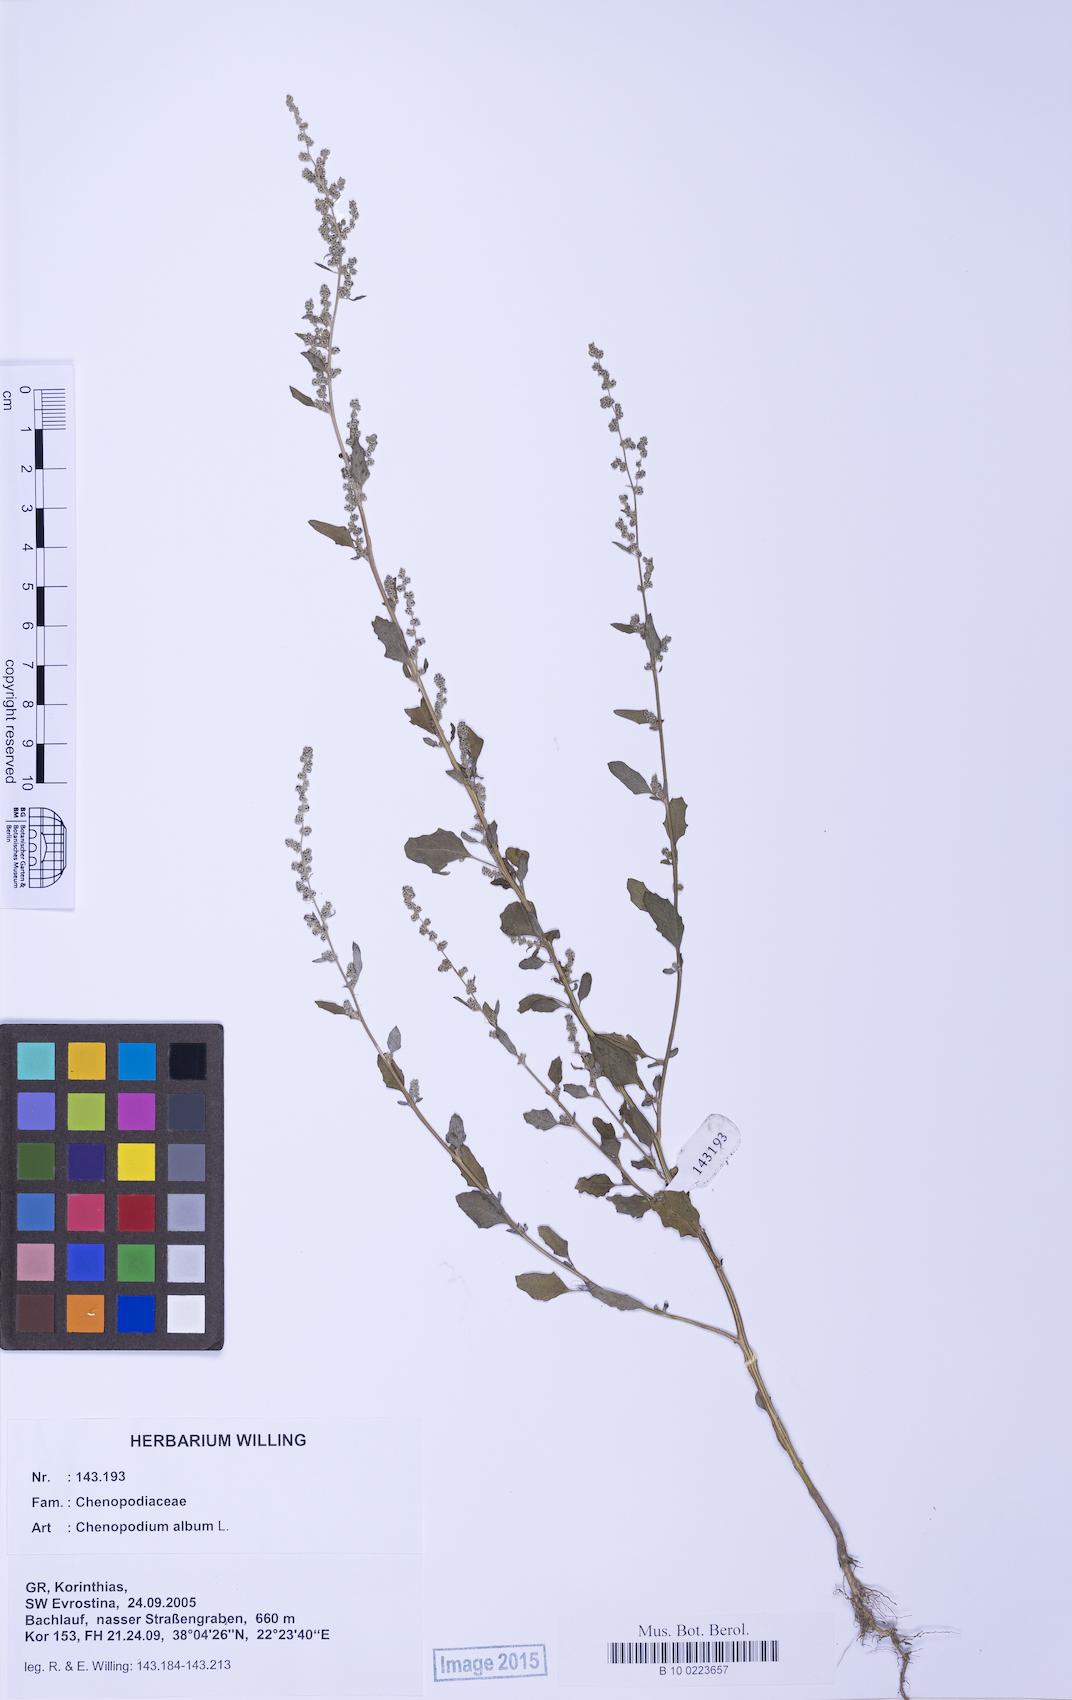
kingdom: Plantae
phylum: Tracheophyta
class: Magnoliopsida
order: Caryophyllales
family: Amaranthaceae
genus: Chenopodium
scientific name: Chenopodium album
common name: Fat-hen
